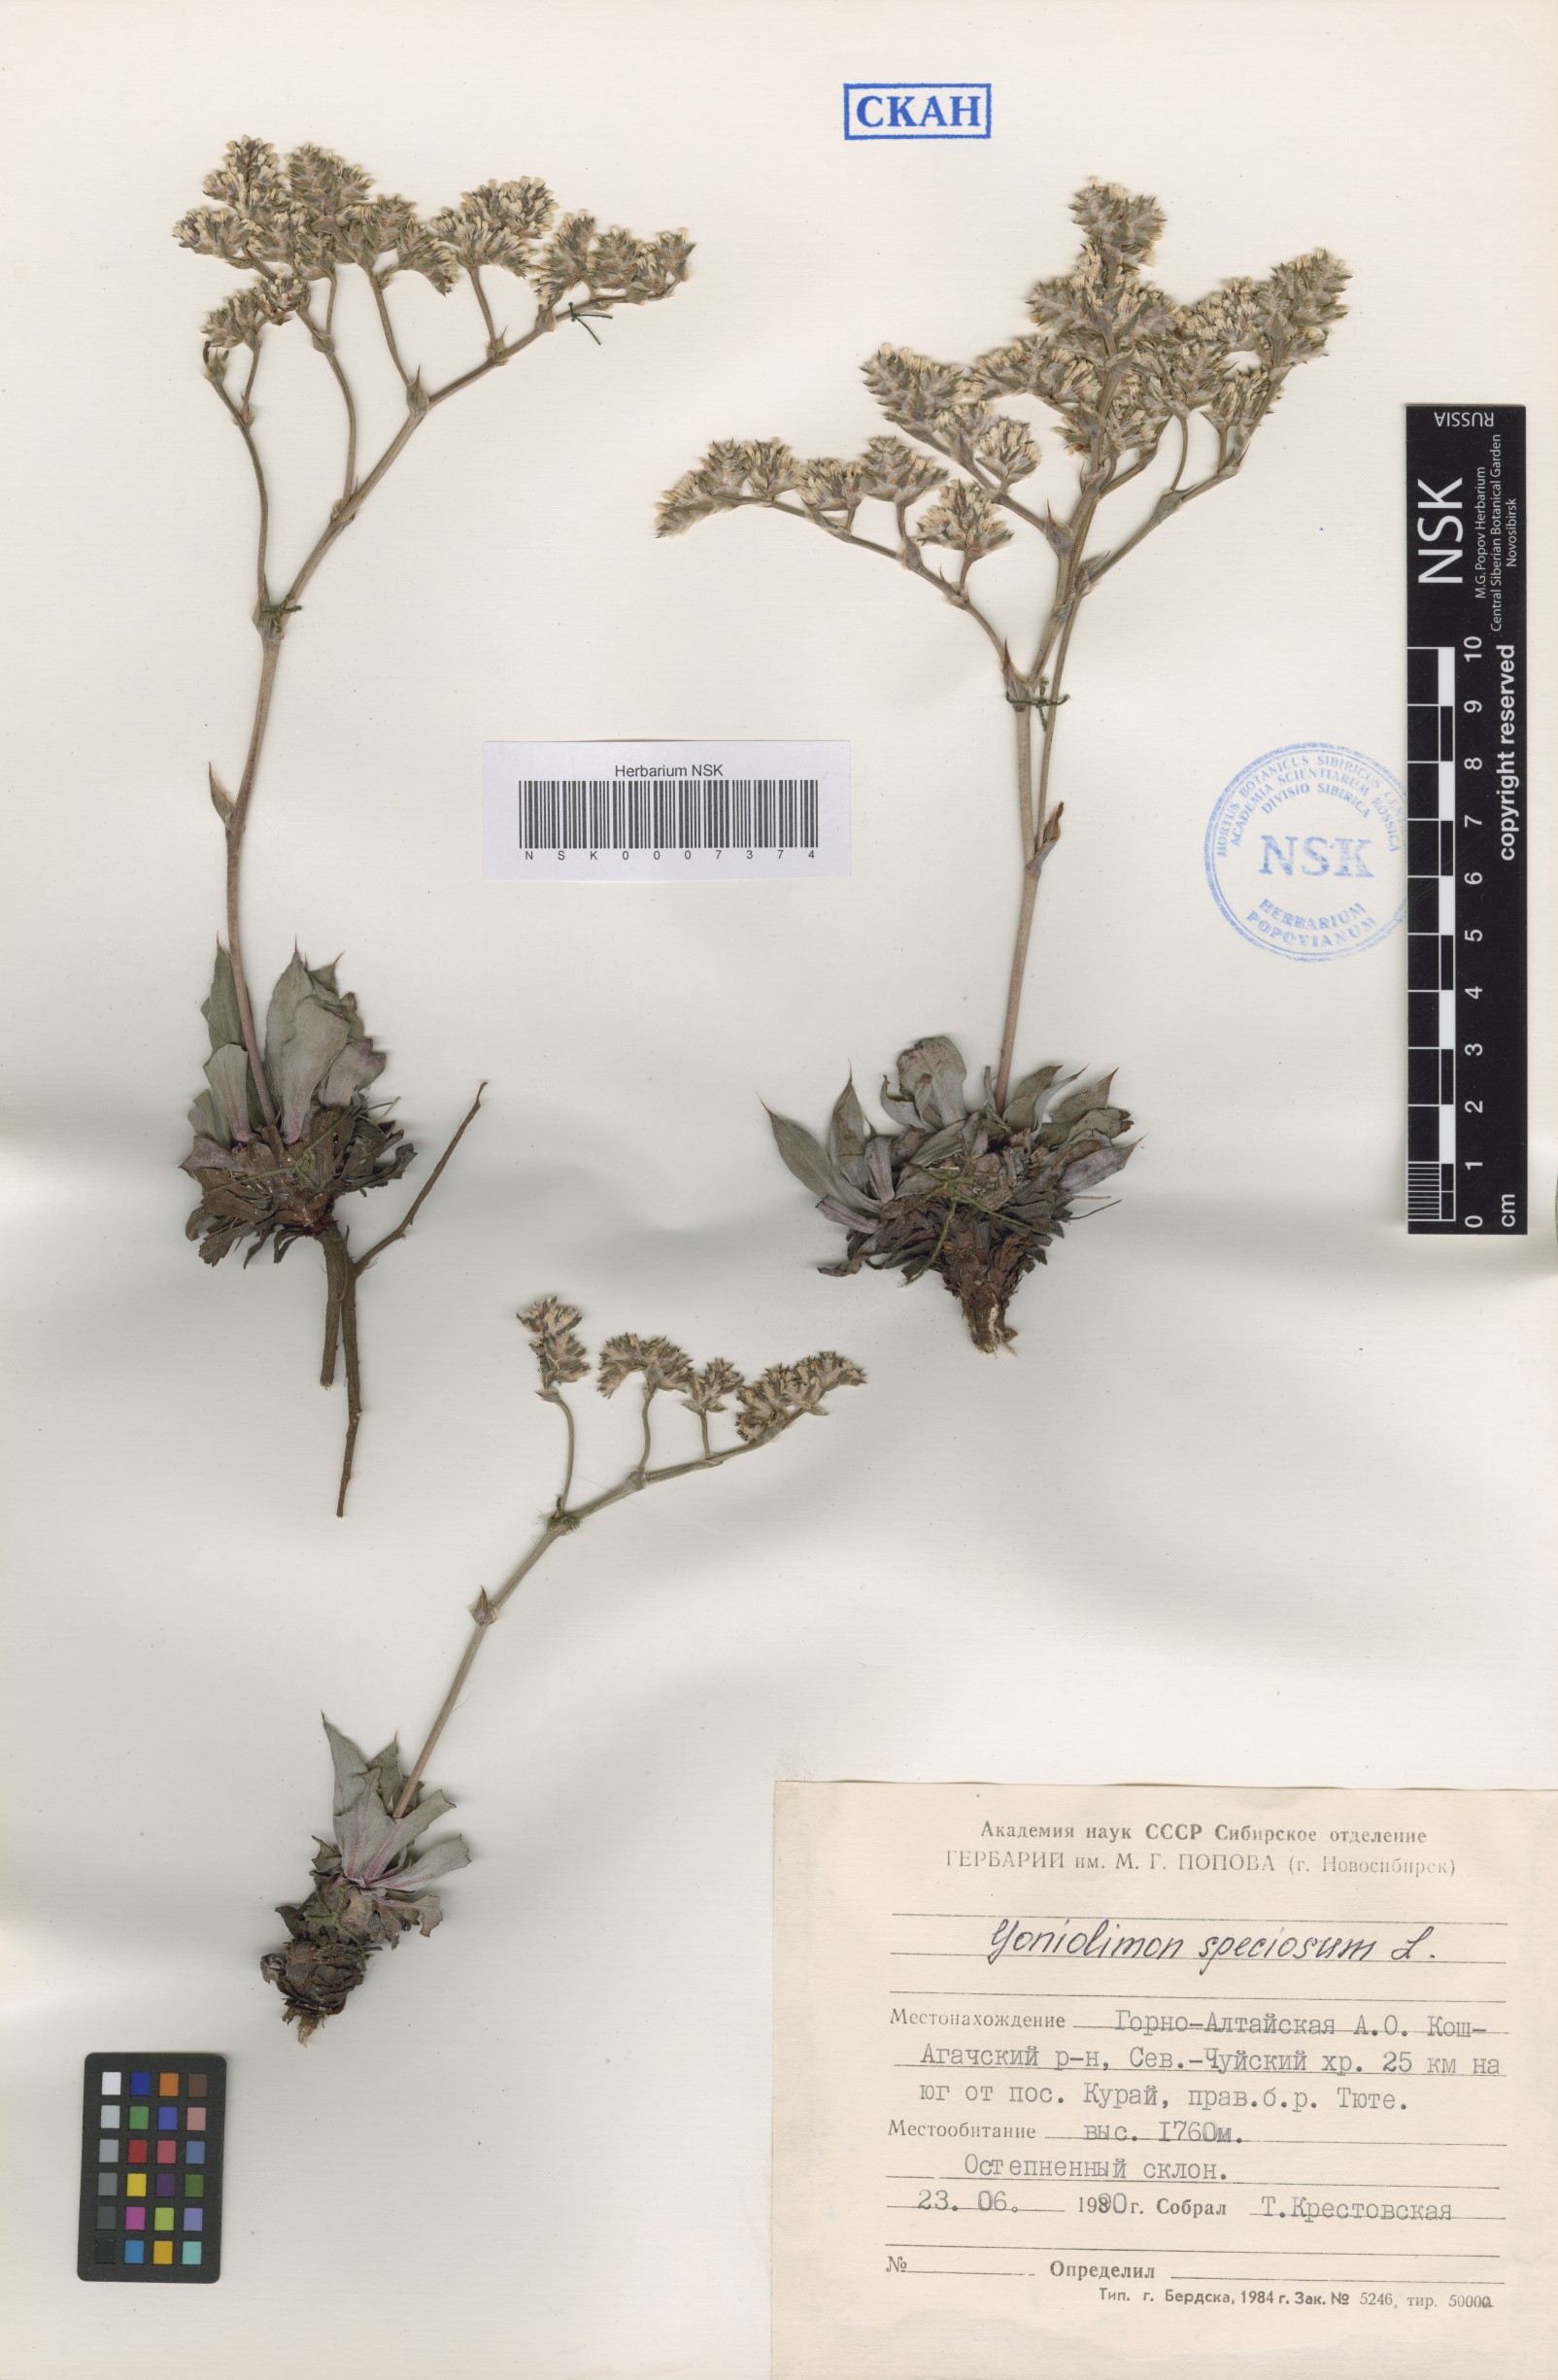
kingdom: Plantae
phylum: Tracheophyta
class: Magnoliopsida
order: Caryophyllales
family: Plumbaginaceae
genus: Goniolimon
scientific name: Goniolimon speciosum
